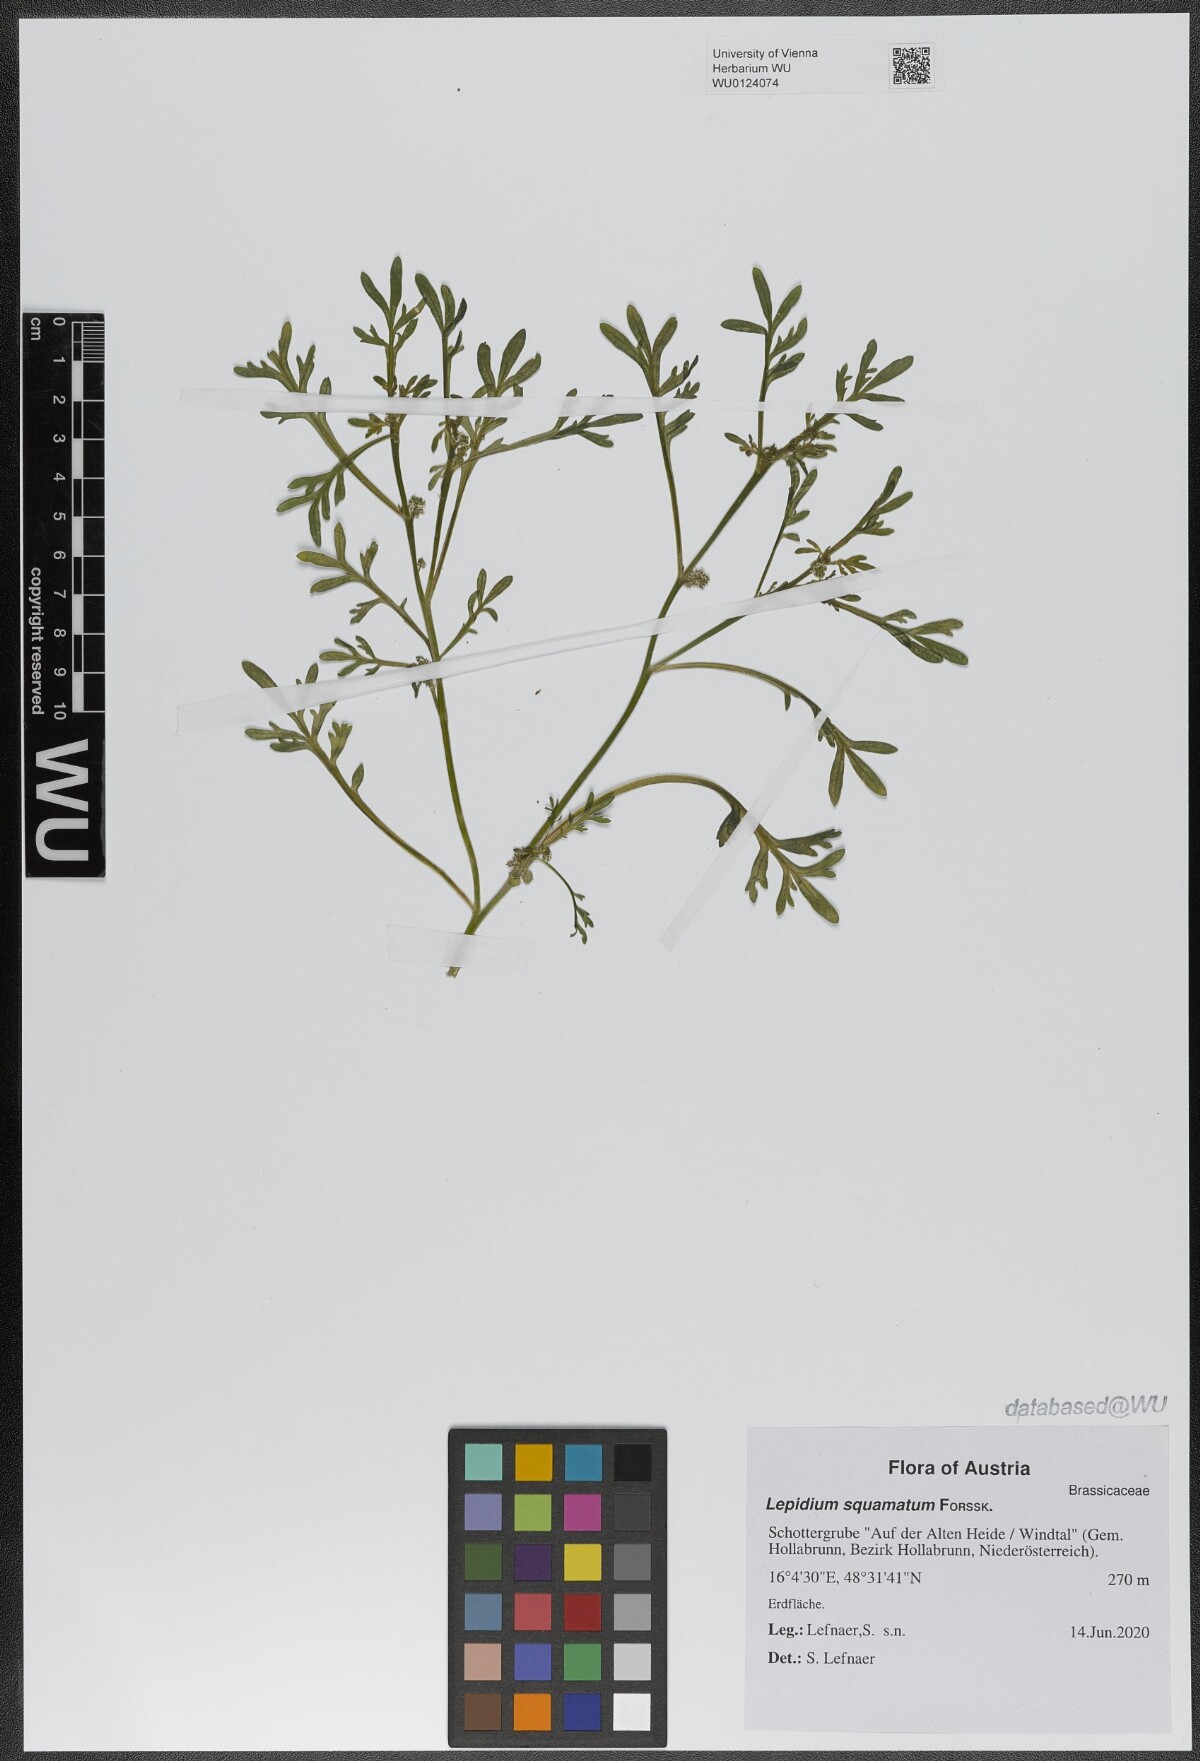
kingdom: Plantae
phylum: Tracheophyta
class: Magnoliopsida
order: Brassicales
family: Brassicaceae
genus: Lepidium
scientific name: Lepidium coronopus
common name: Greater swinecress
